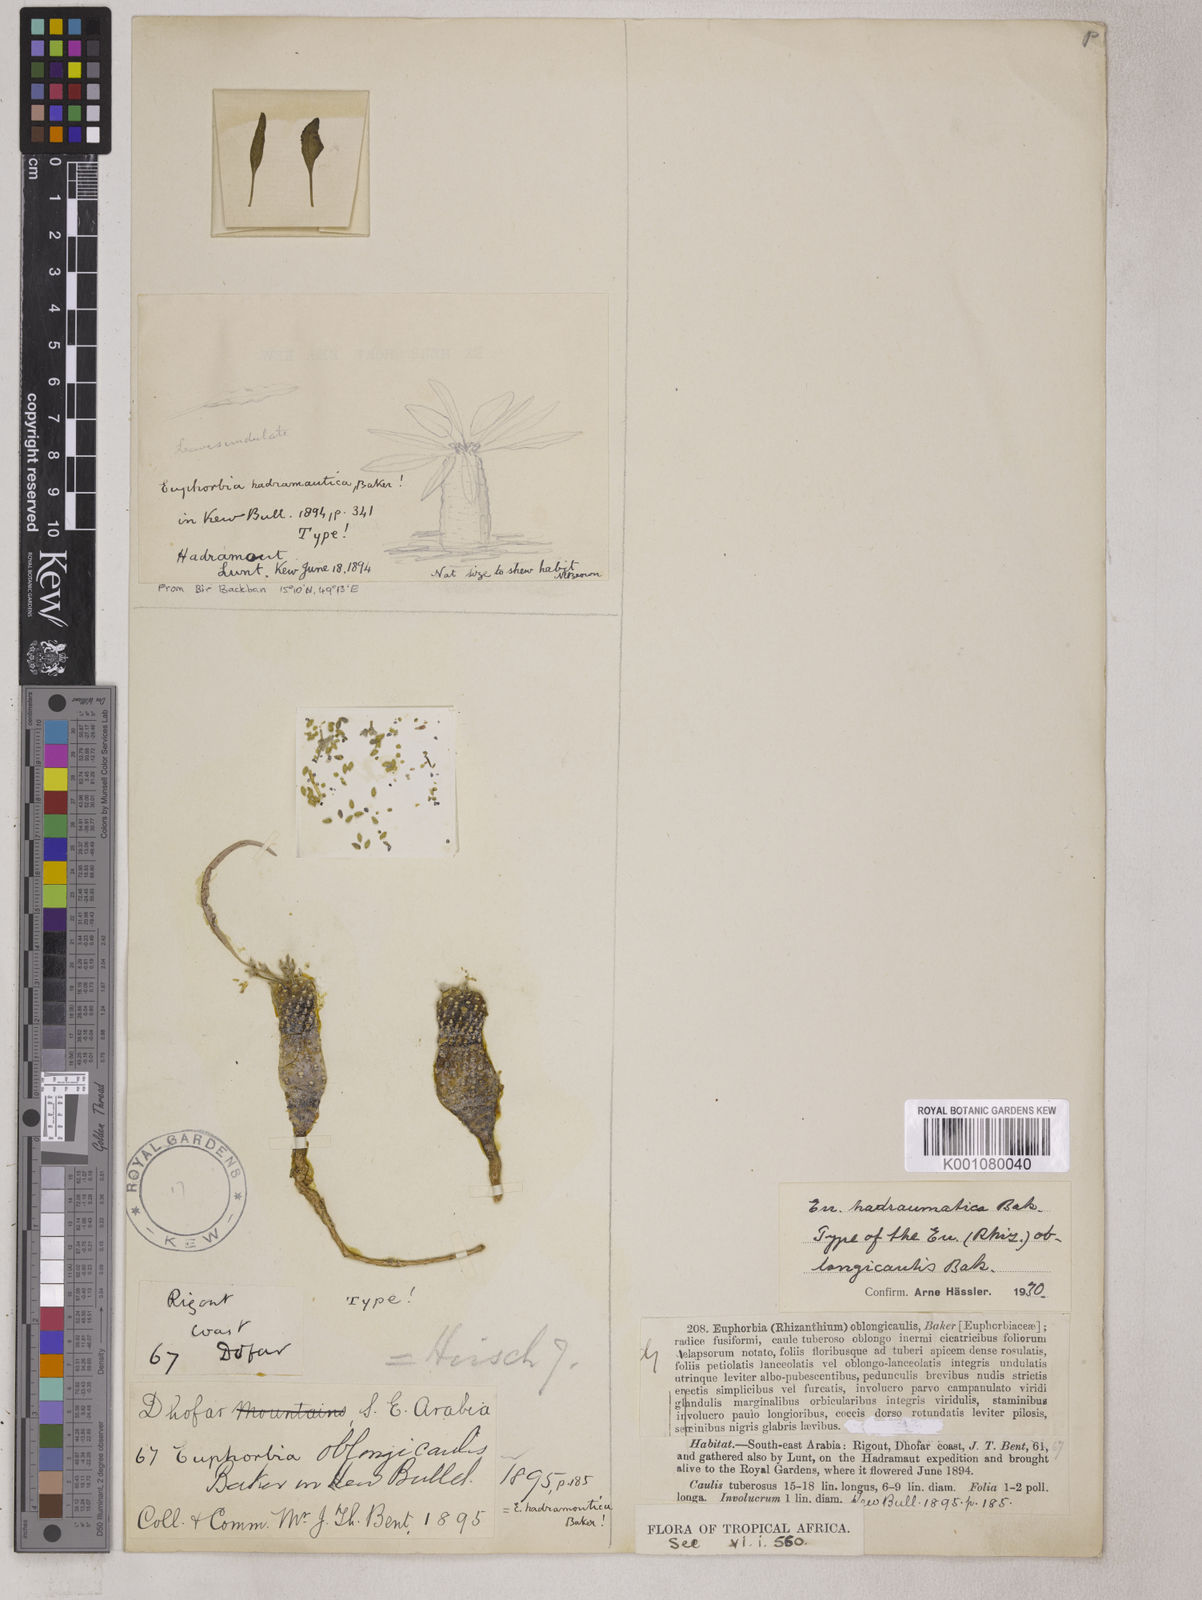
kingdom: Plantae
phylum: Tracheophyta
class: Magnoliopsida
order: Malpighiales
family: Euphorbiaceae
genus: Euphorbia
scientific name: Euphorbia hadramautica
